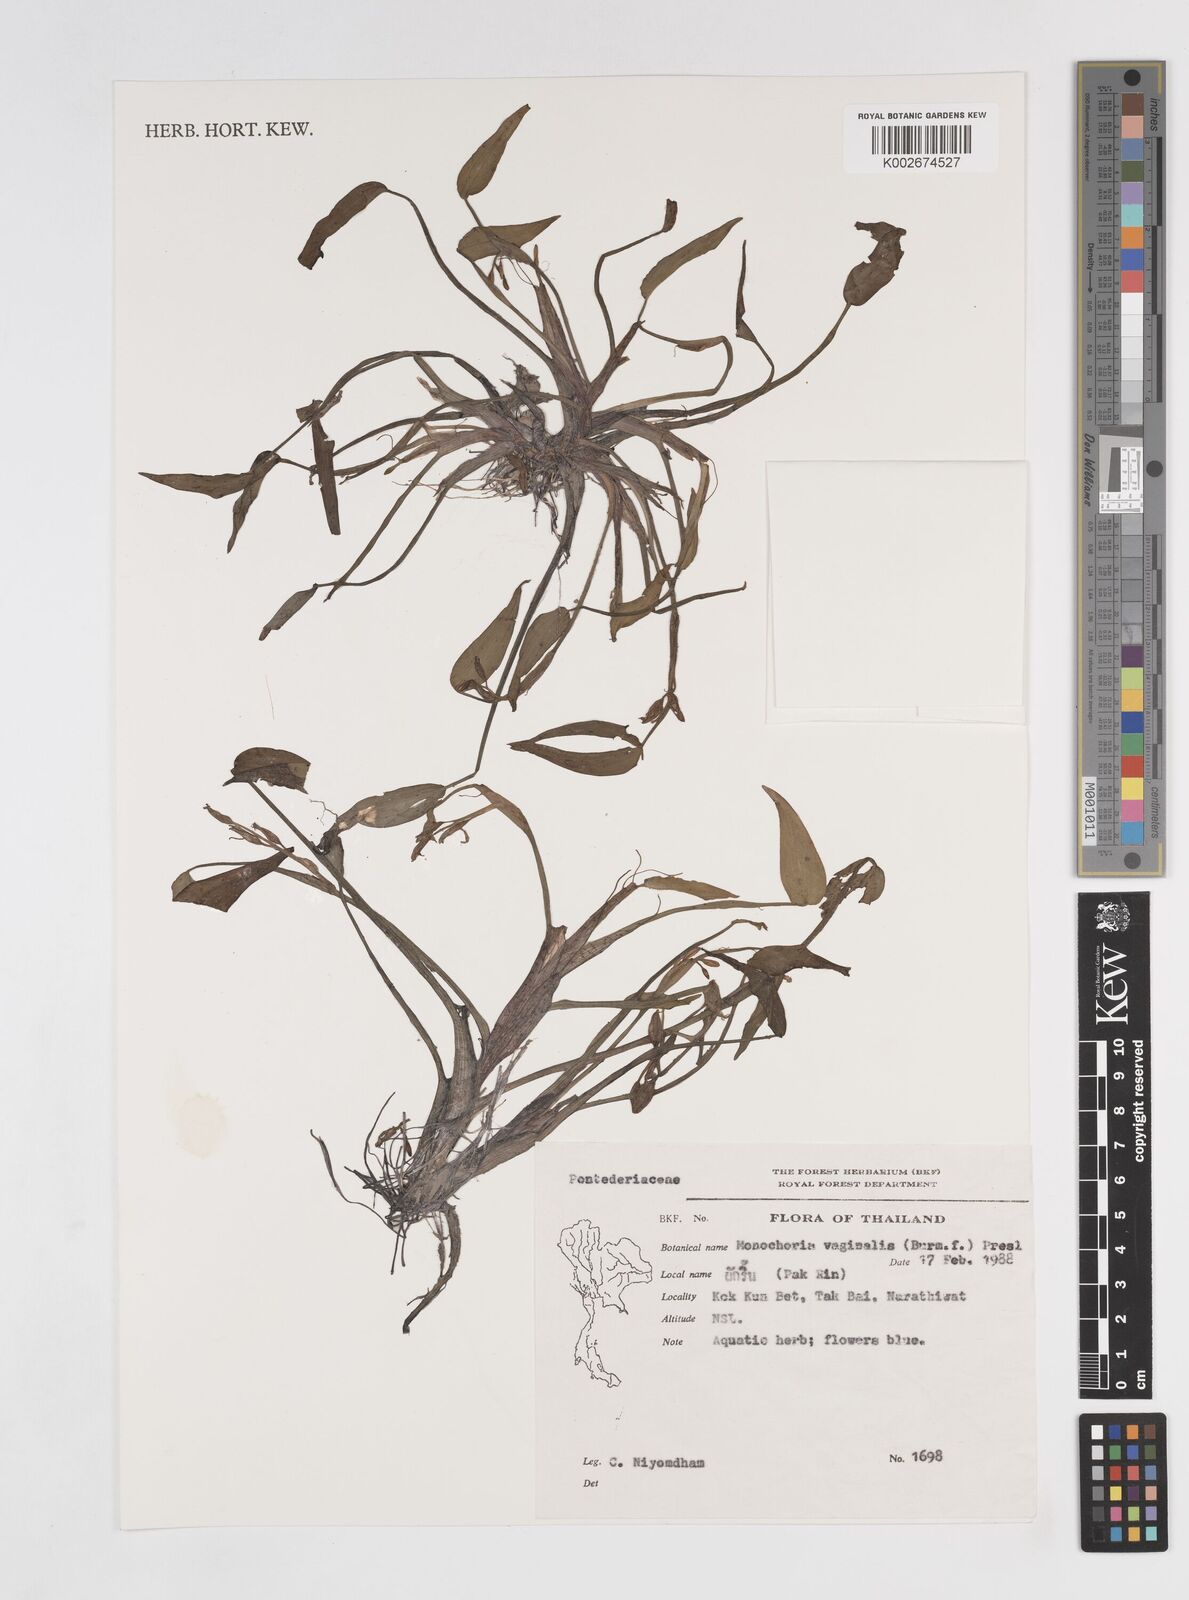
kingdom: Plantae
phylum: Tracheophyta
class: Liliopsida
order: Commelinales
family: Pontederiaceae
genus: Pontederia
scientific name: Pontederia vaginalis
